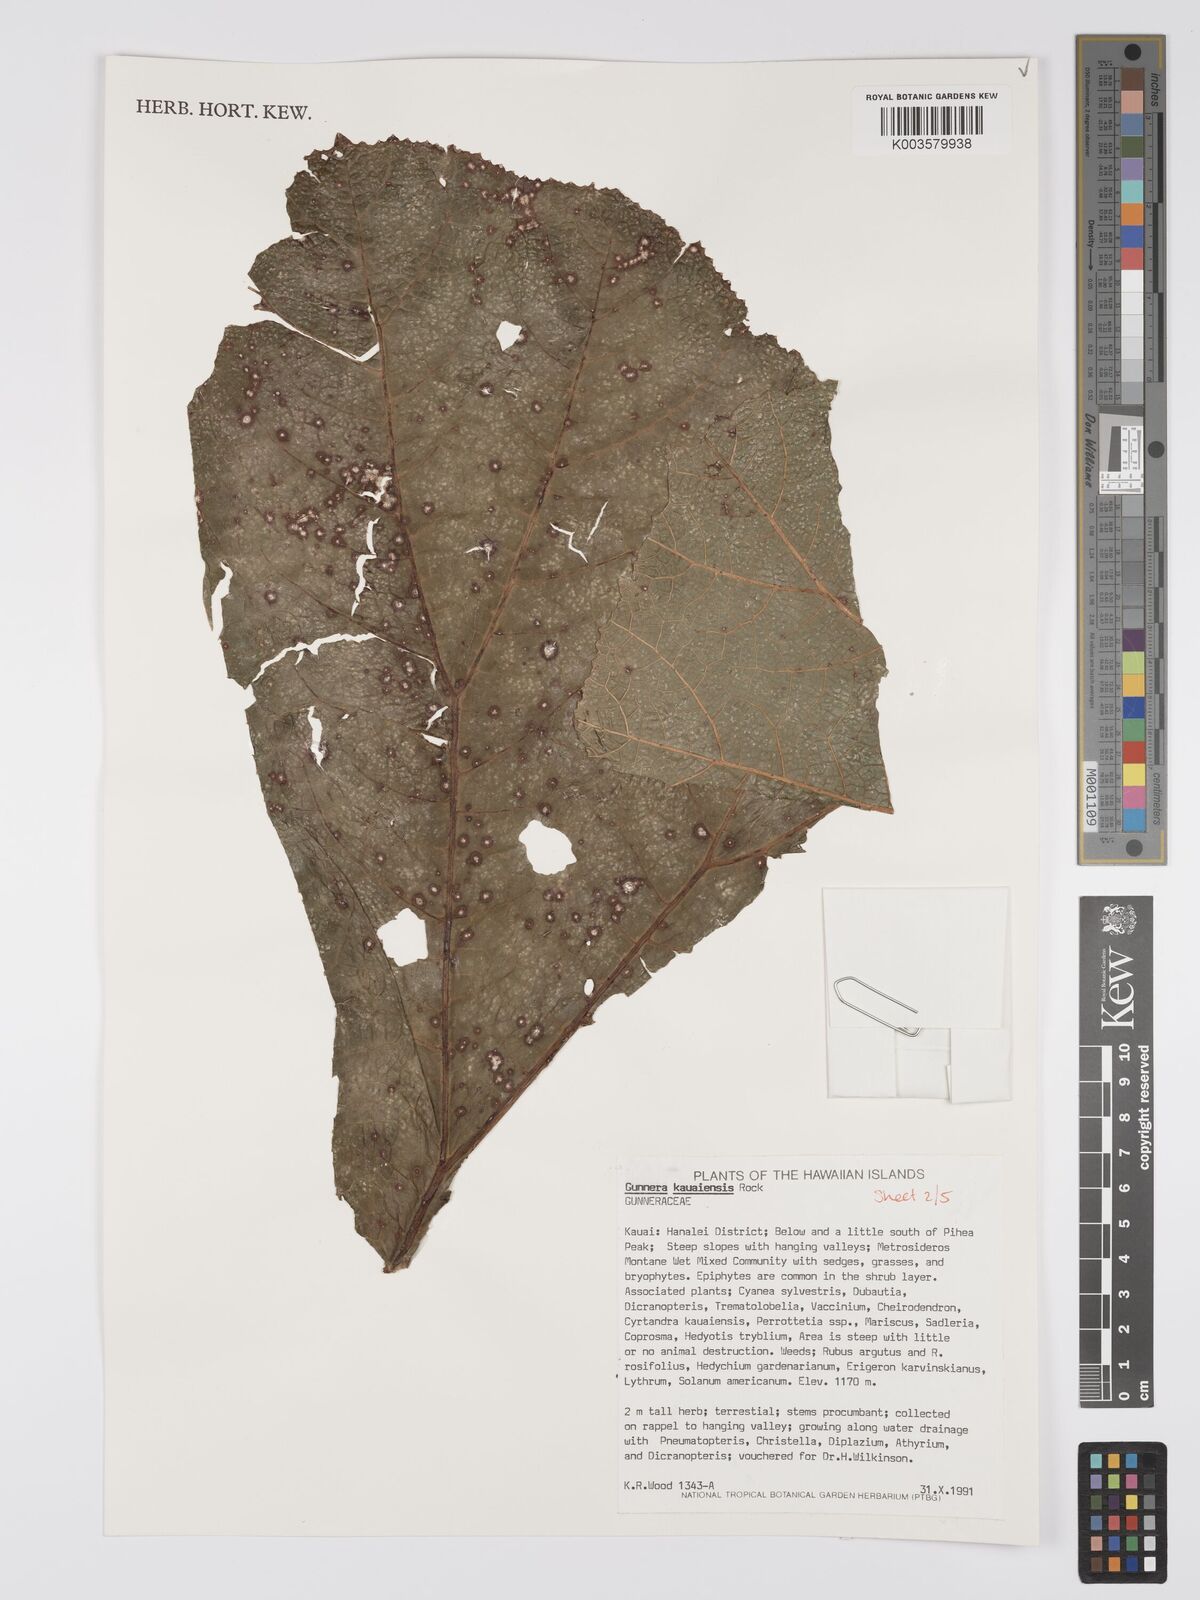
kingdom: Plantae
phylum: Tracheophyta
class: Magnoliopsida
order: Gunnerales
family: Gunneraceae
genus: Gunnera
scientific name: Gunnera kauaiensis
